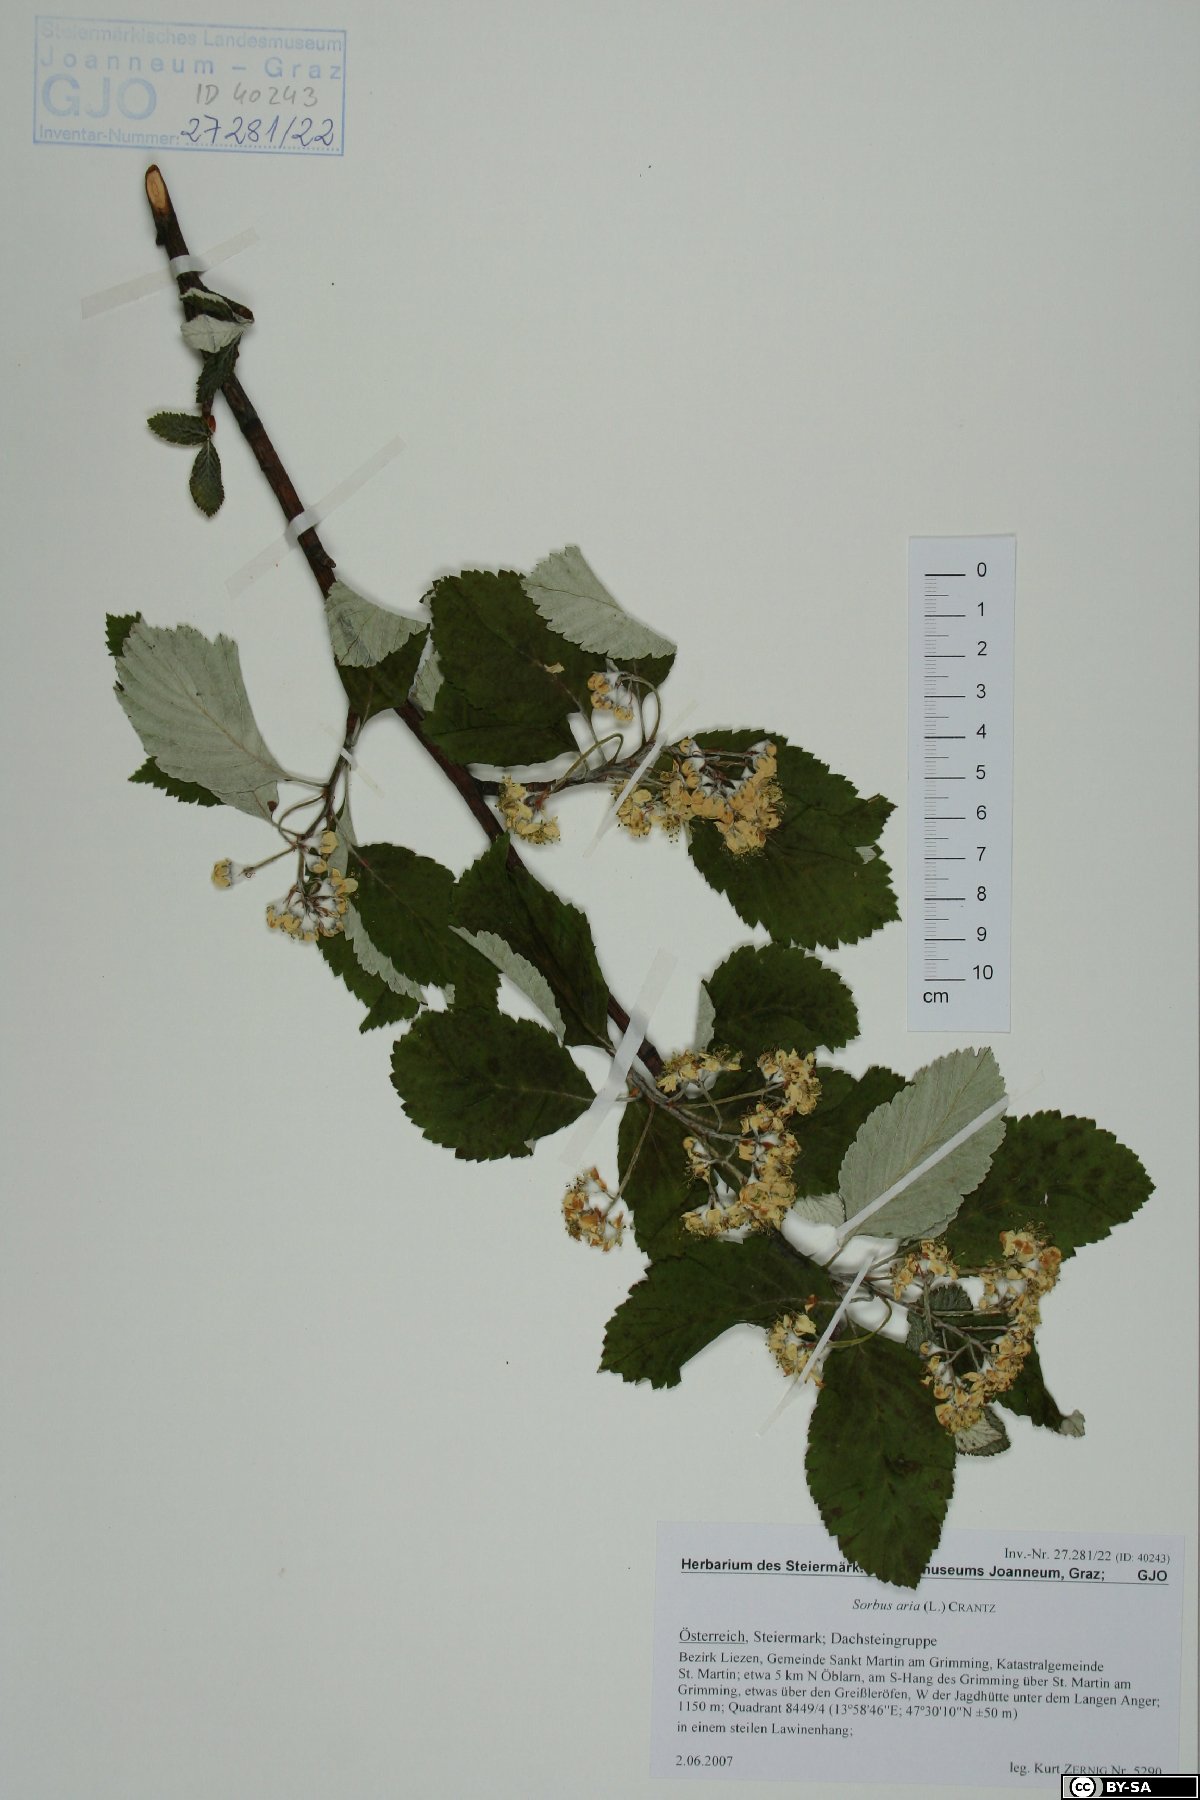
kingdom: Plantae
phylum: Tracheophyta
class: Magnoliopsida
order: Rosales
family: Rosaceae
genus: Aria
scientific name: Aria edulis
